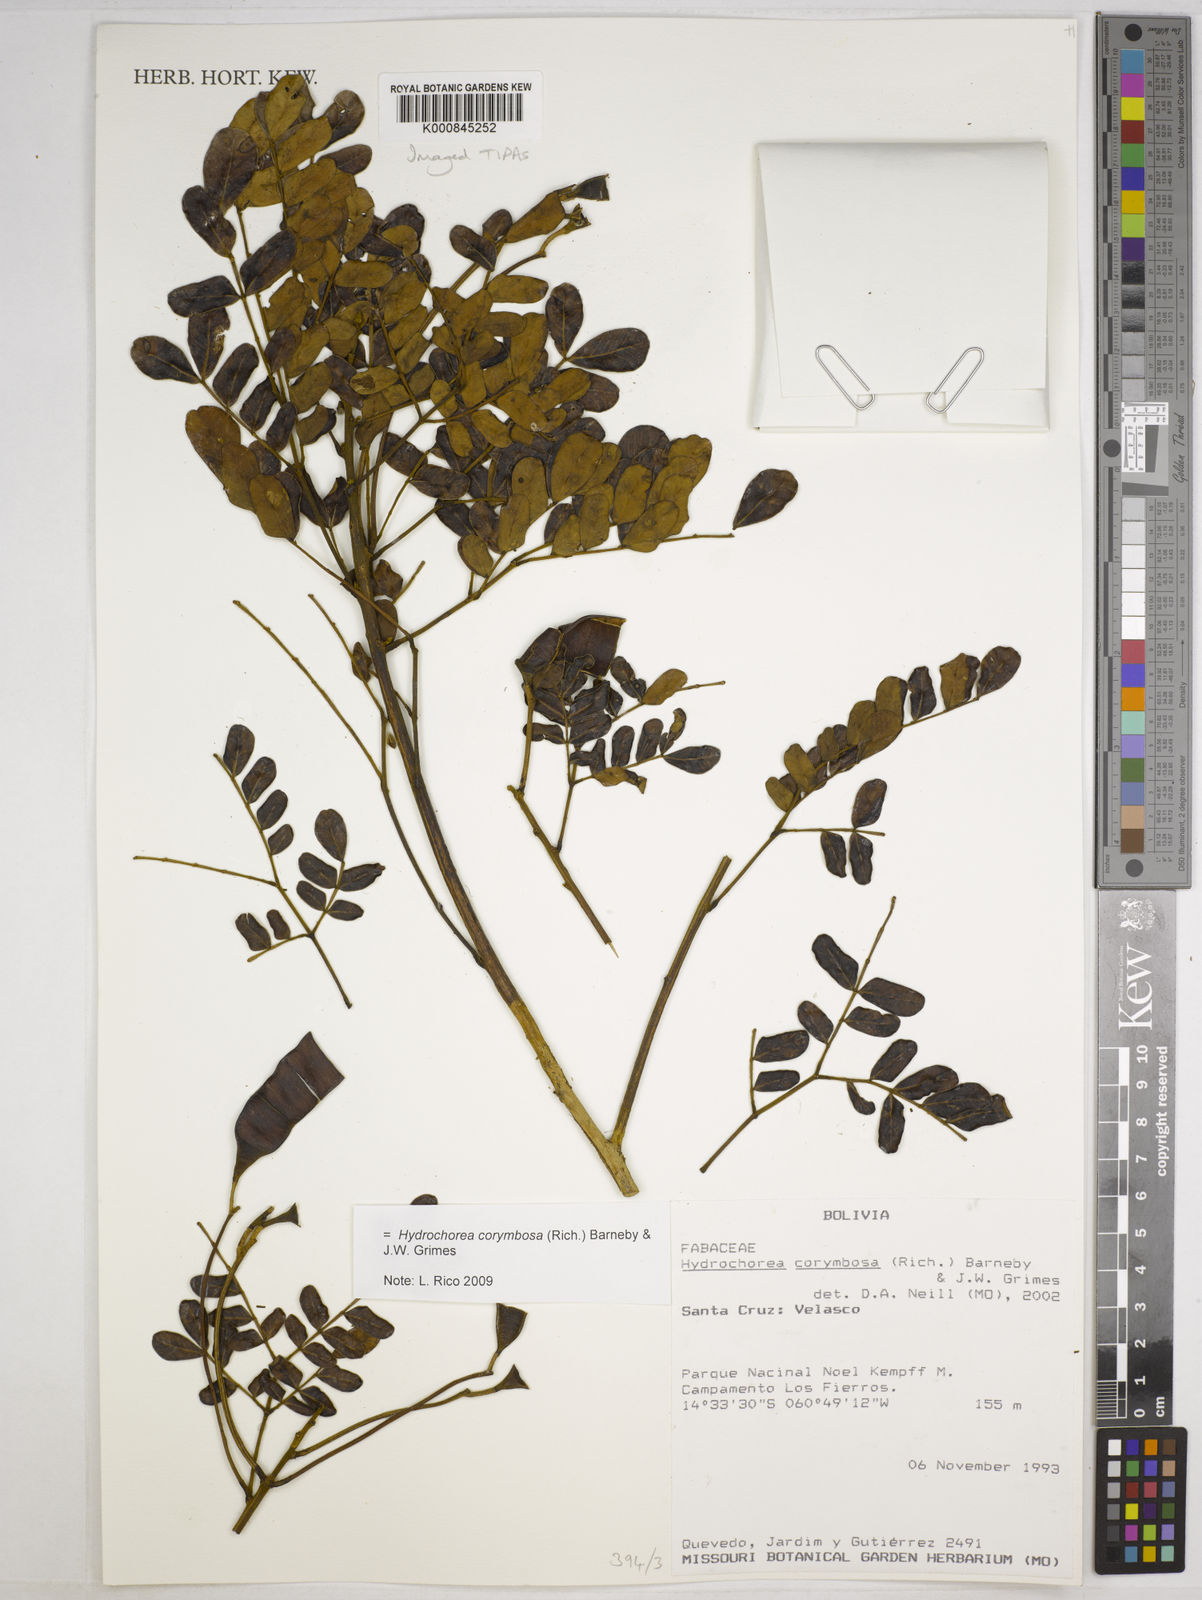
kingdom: Plantae
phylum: Tracheophyta
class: Magnoliopsida
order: Fabales
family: Fabaceae
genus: Hydrochorea
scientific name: Hydrochorea corymbosa
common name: Swamp manariballi
